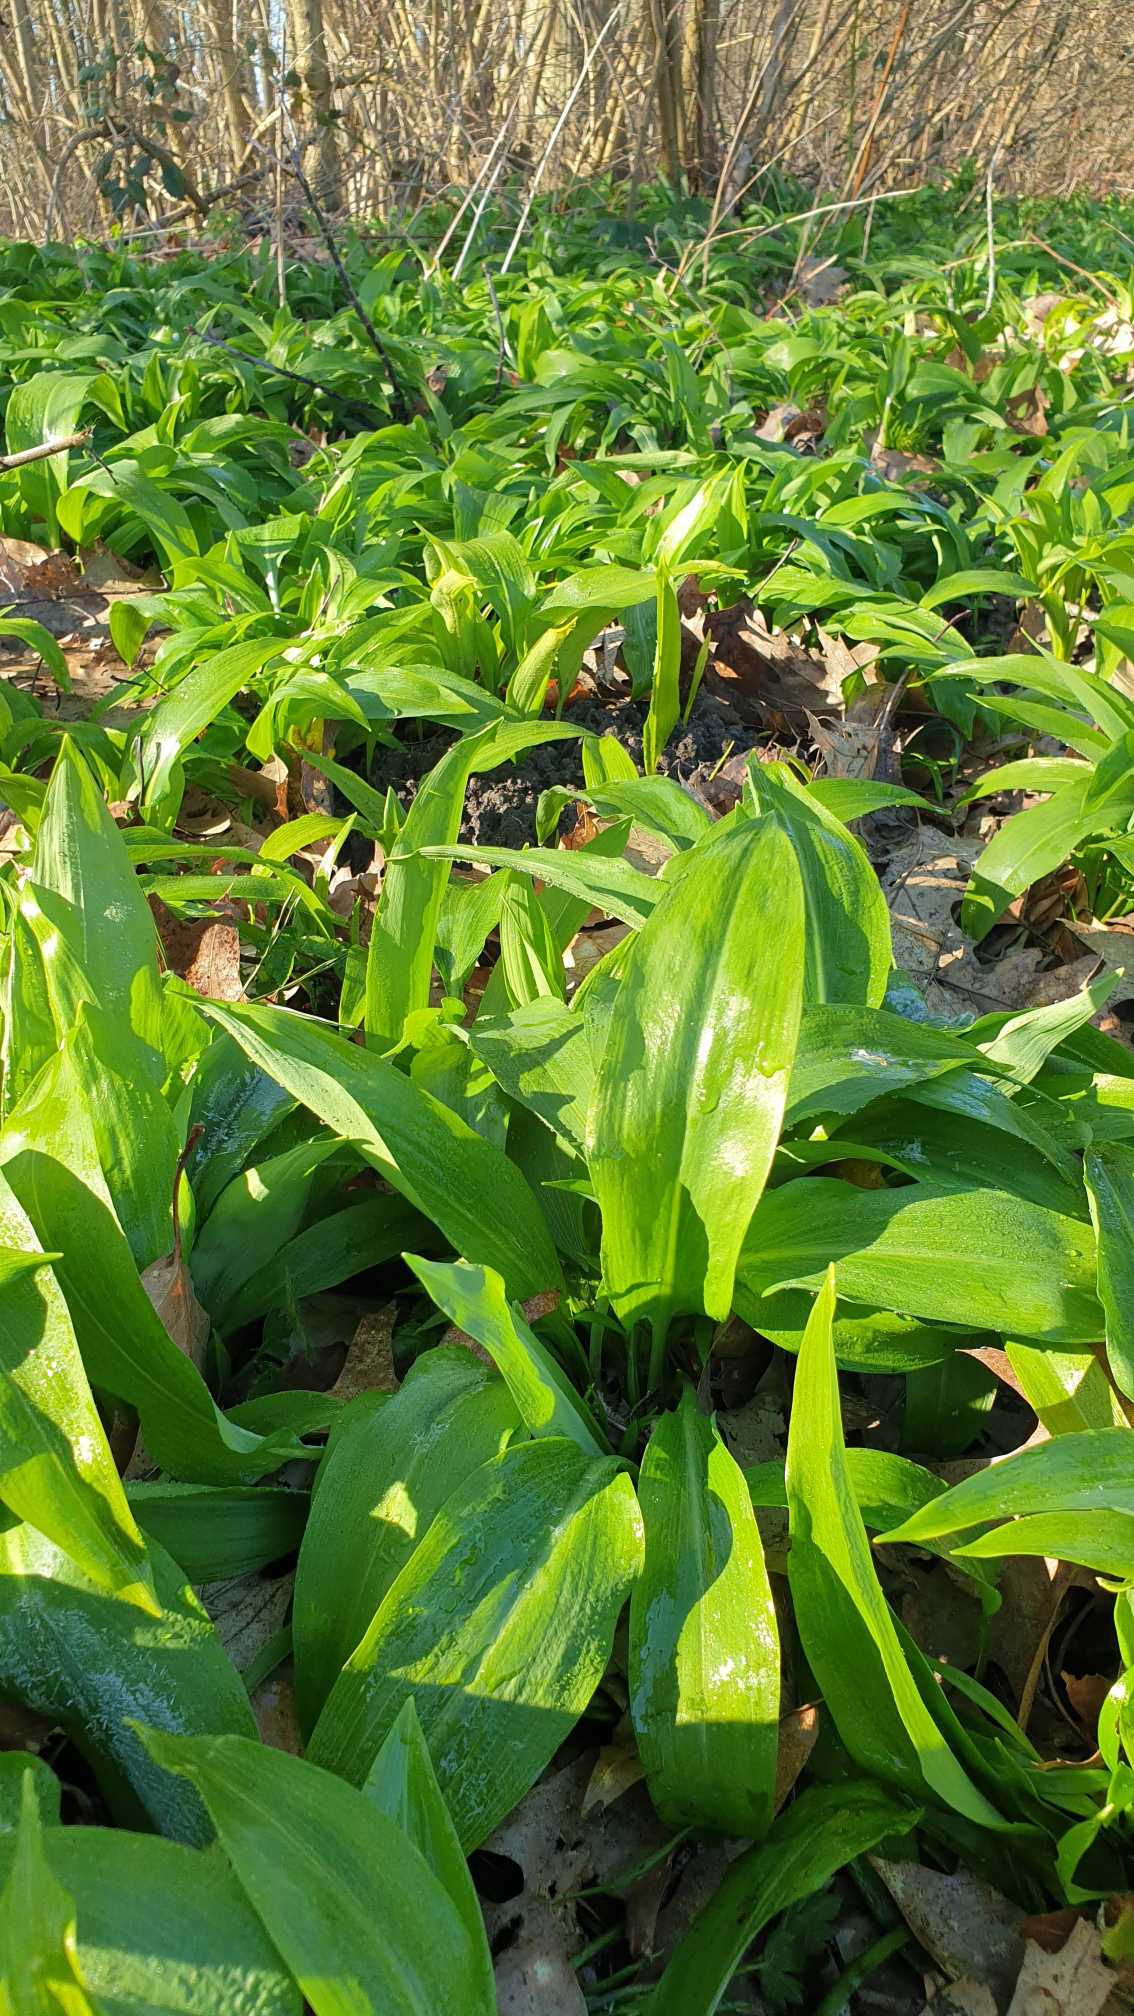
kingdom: Plantae
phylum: Tracheophyta
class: Liliopsida
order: Asparagales
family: Amaryllidaceae
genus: Allium
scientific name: Allium ursinum
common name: Rams-løg
